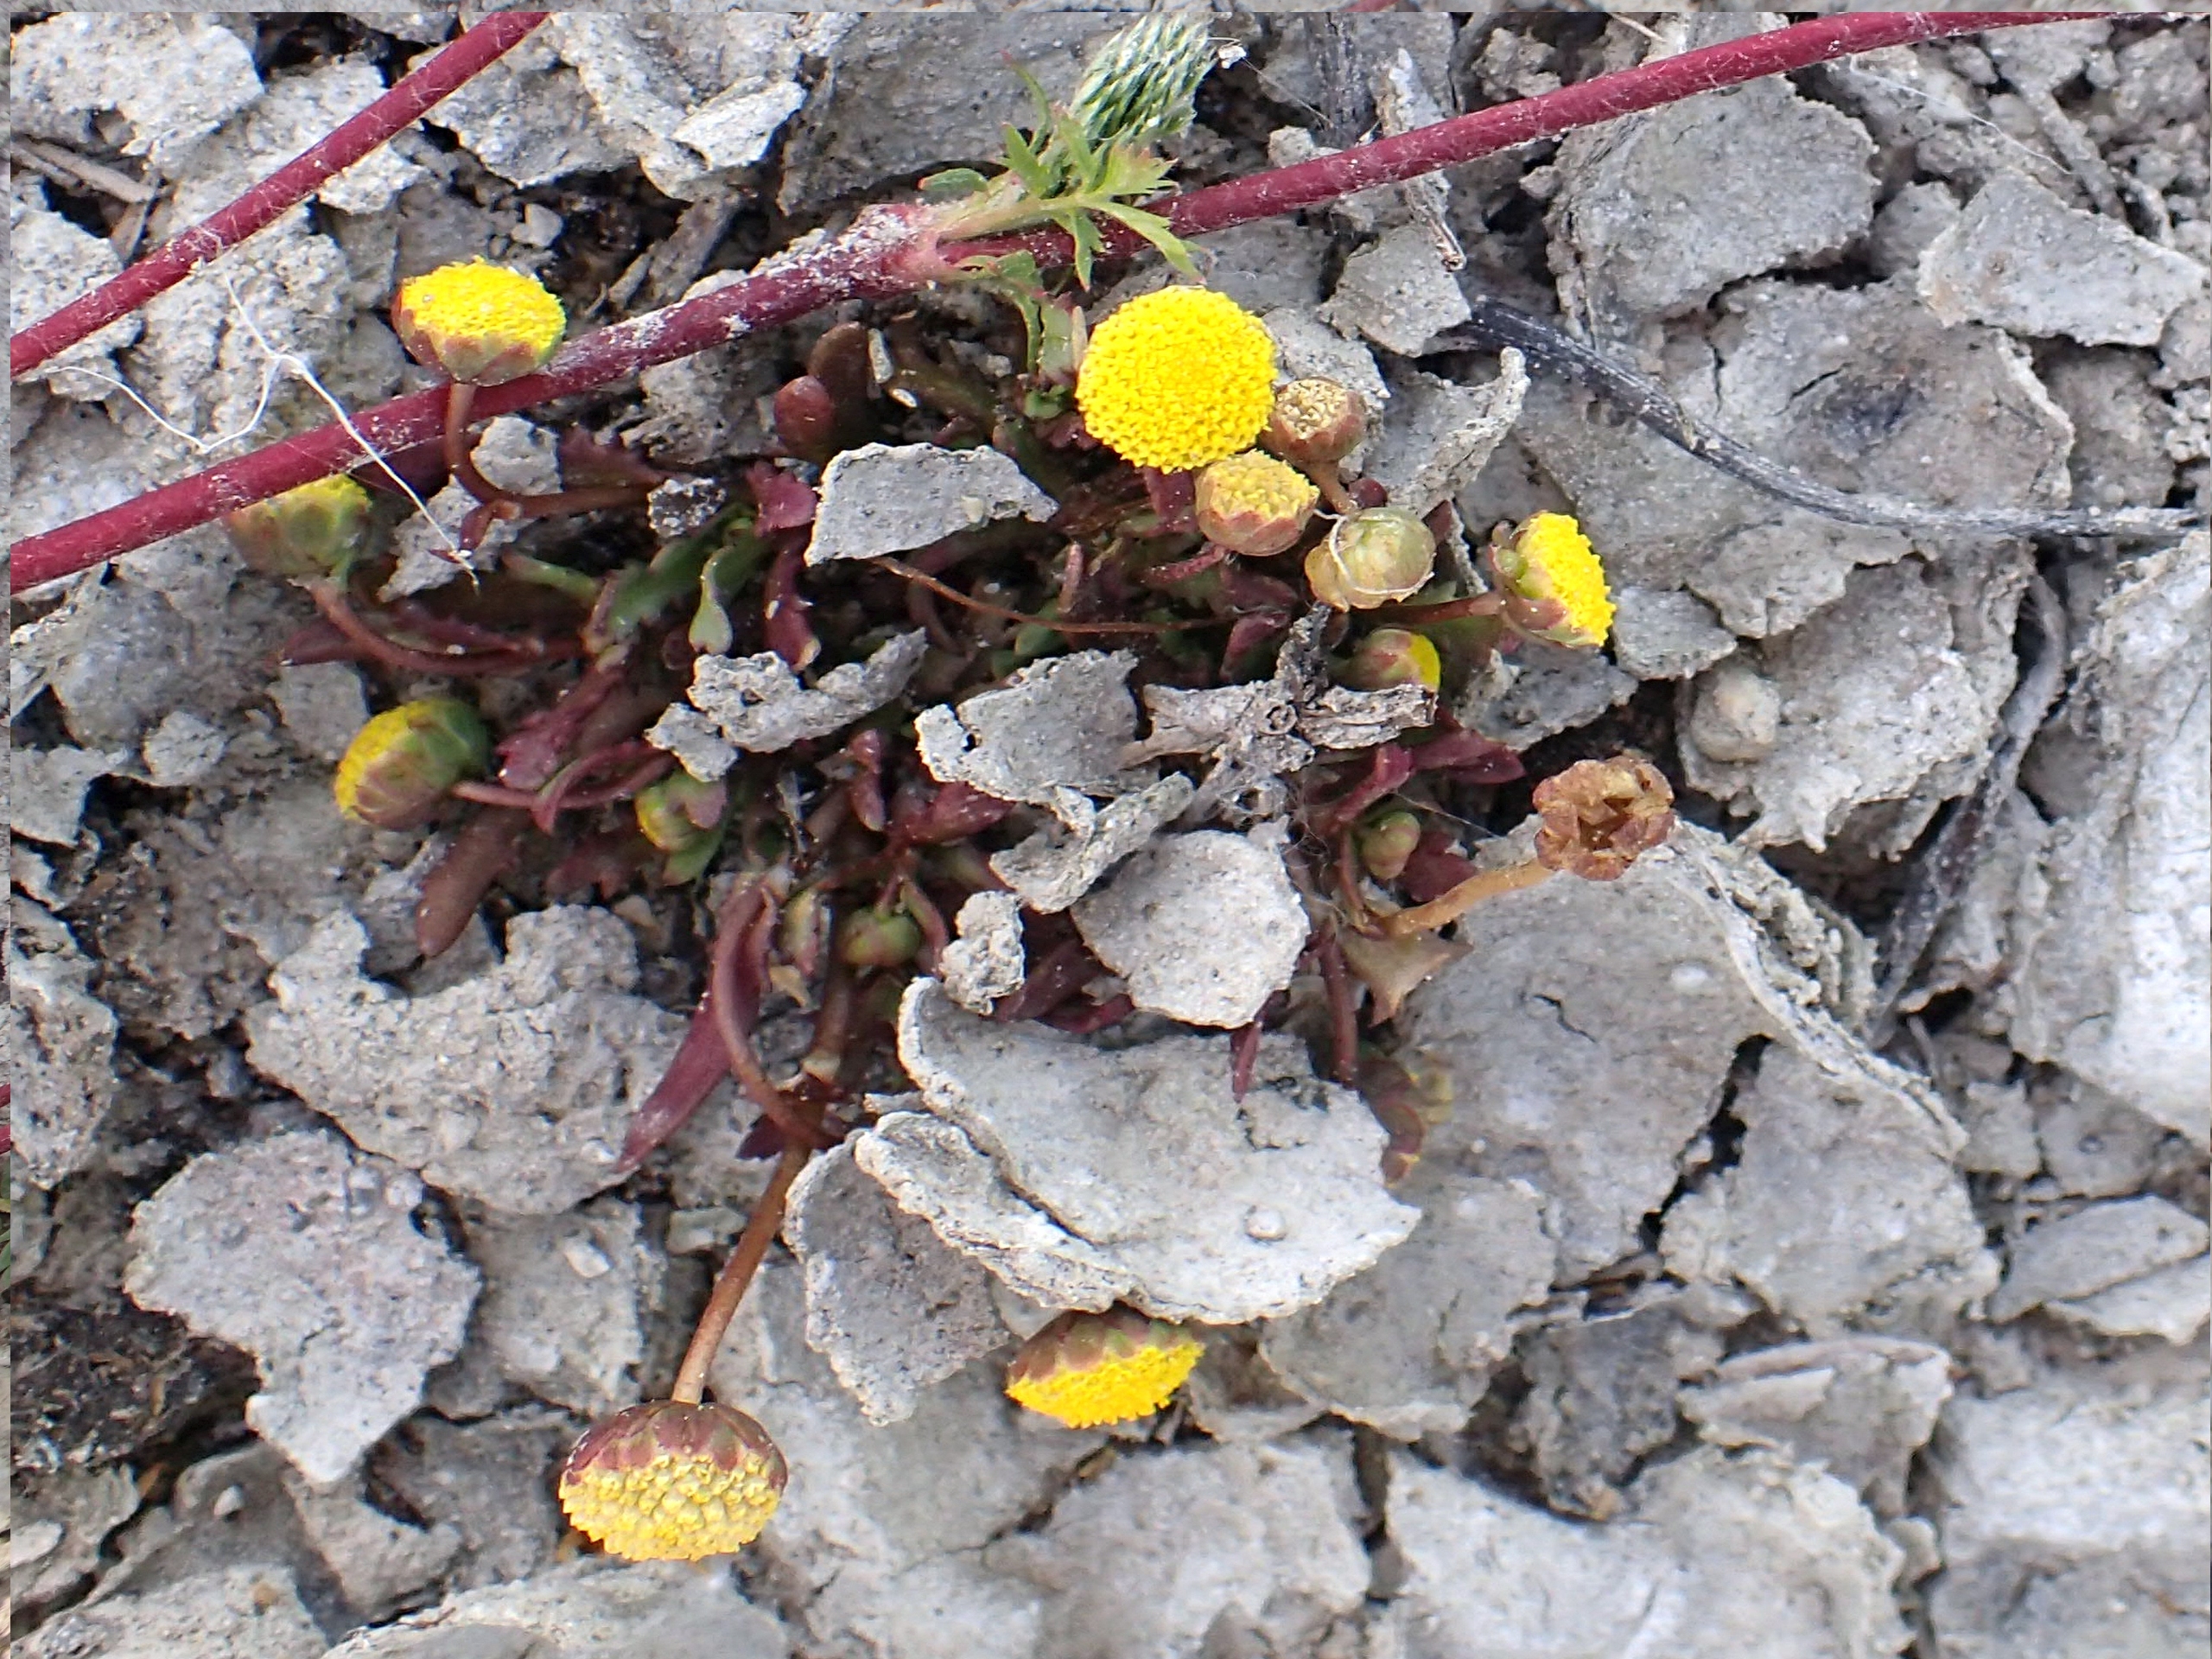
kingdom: Plantae
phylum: Tracheophyta
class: Magnoliopsida
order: Asterales
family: Asteraceae
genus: Cotula
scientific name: Cotula coronopifolia
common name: Firkløft
